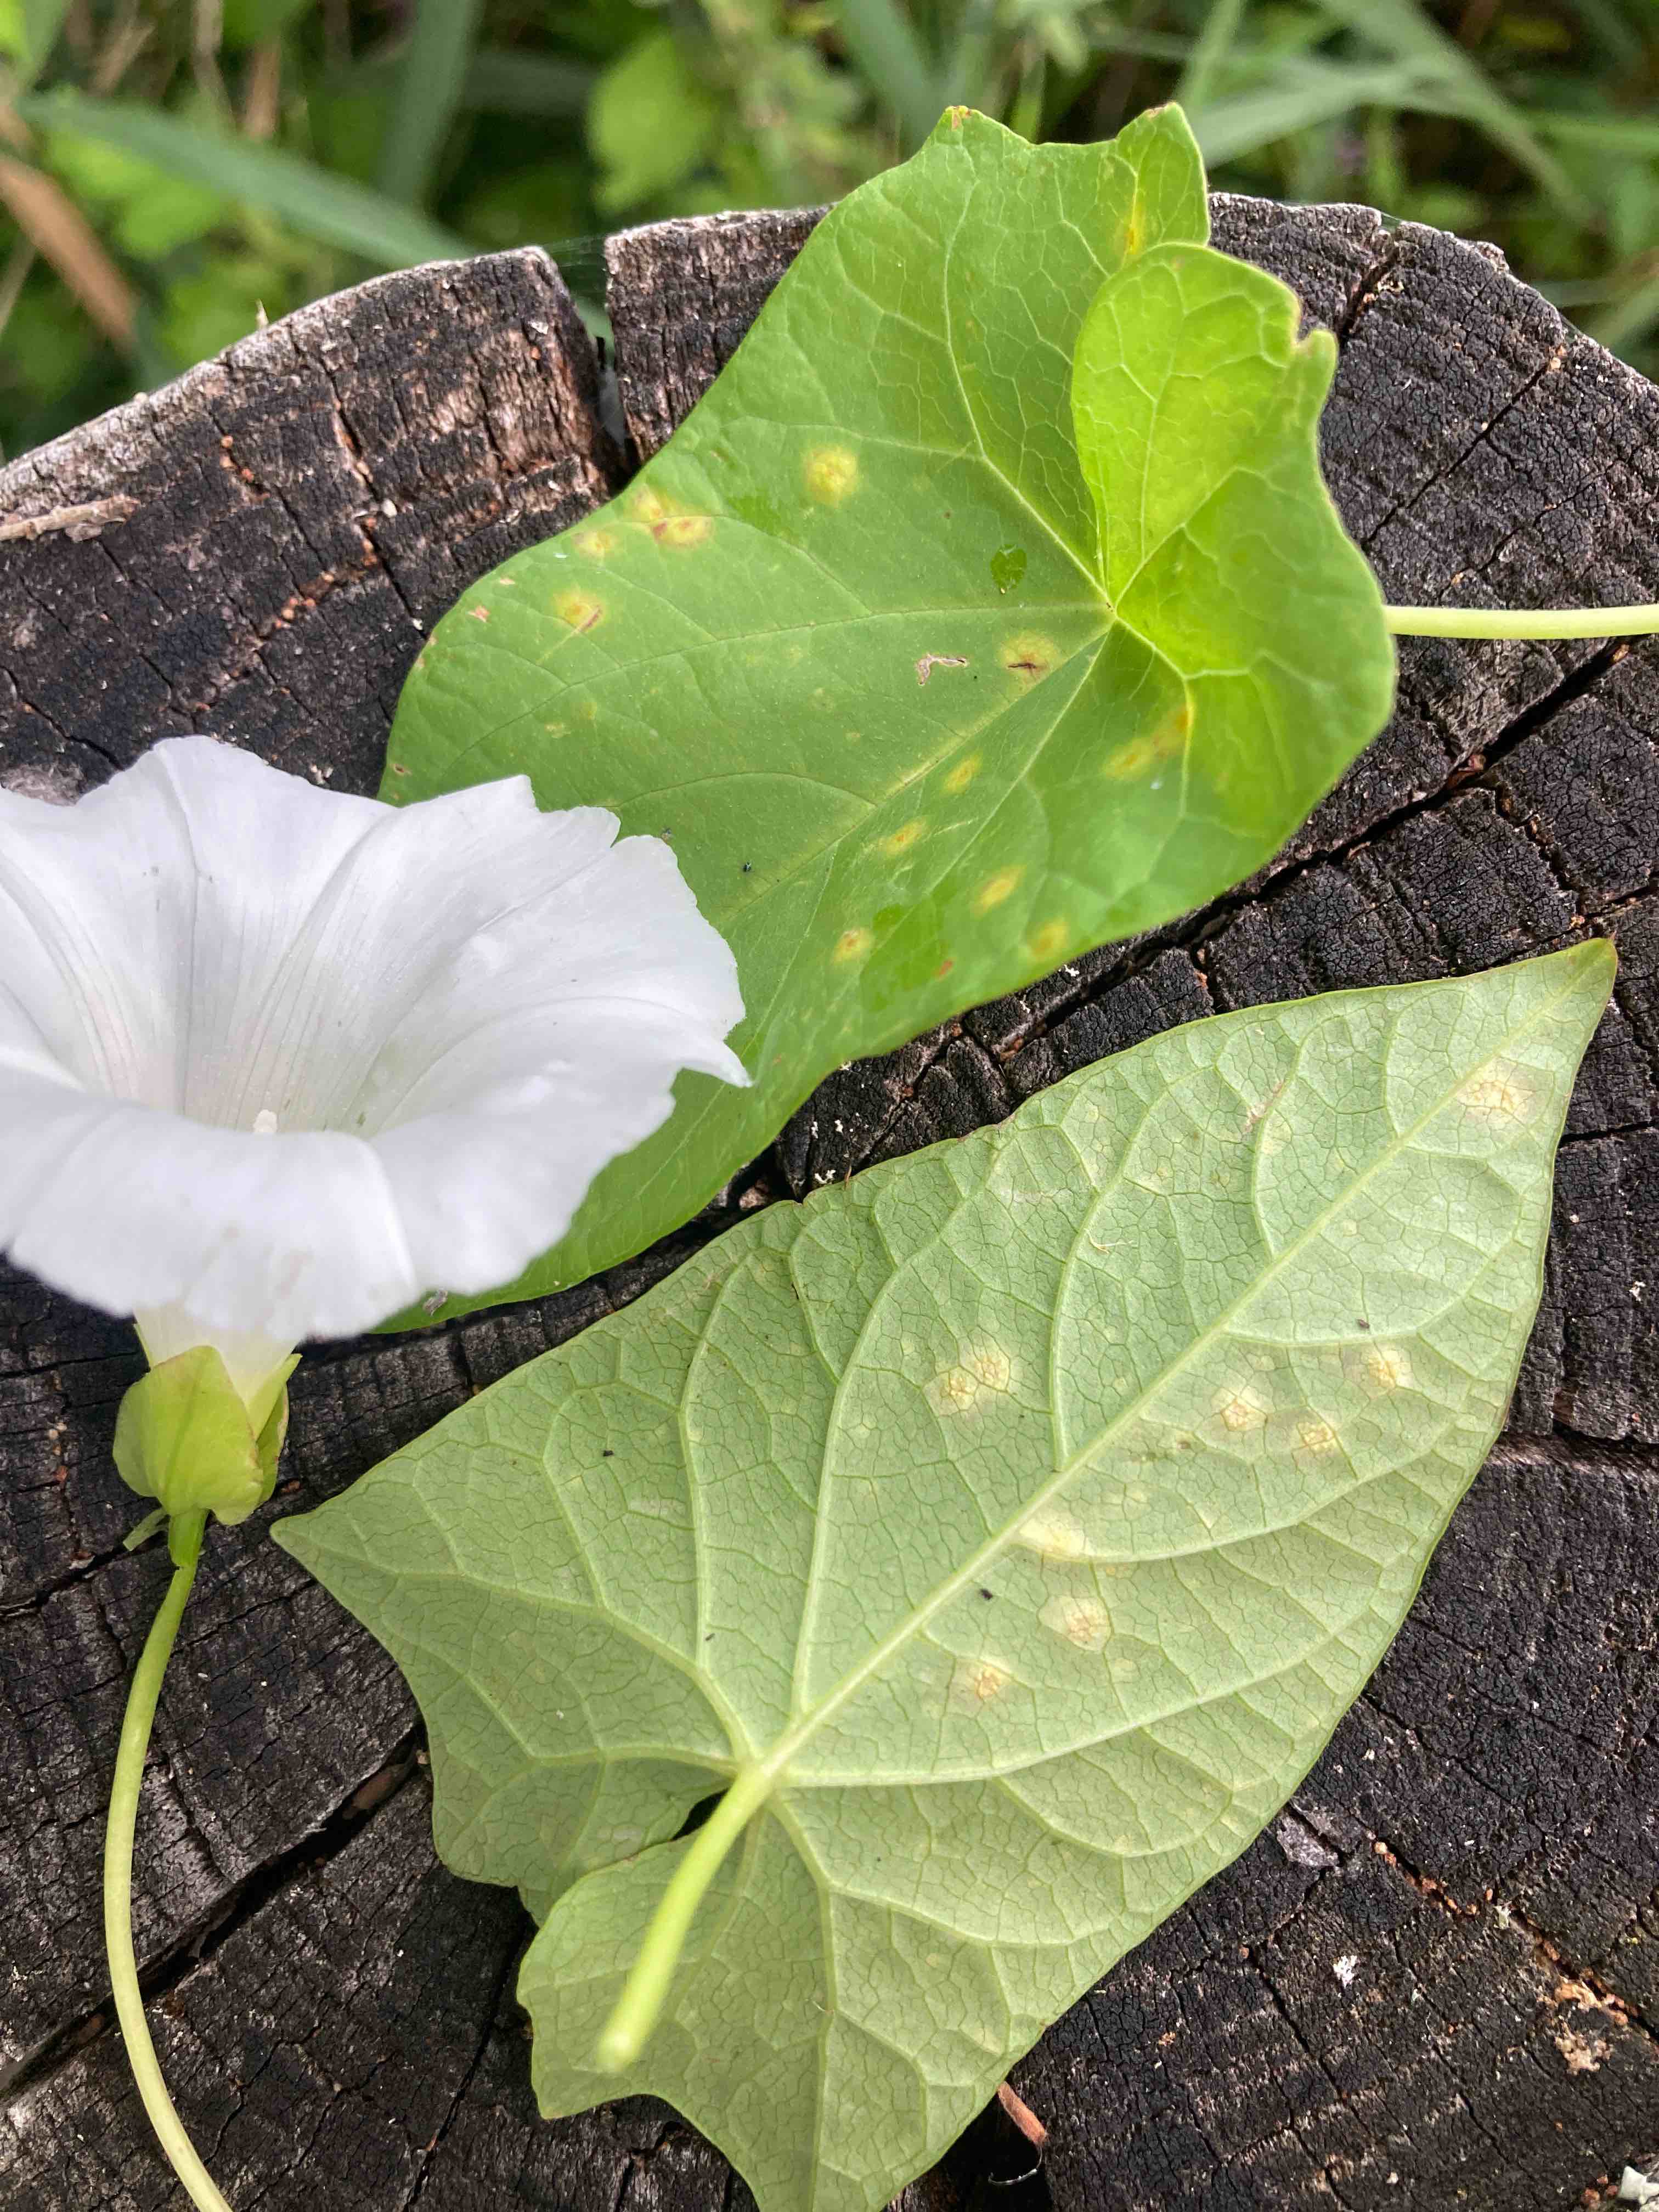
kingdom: Fungi
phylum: Basidiomycota
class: Pucciniomycetes
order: Pucciniales
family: Pucciniaceae
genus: Puccinia
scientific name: Puccinia convolvuli
